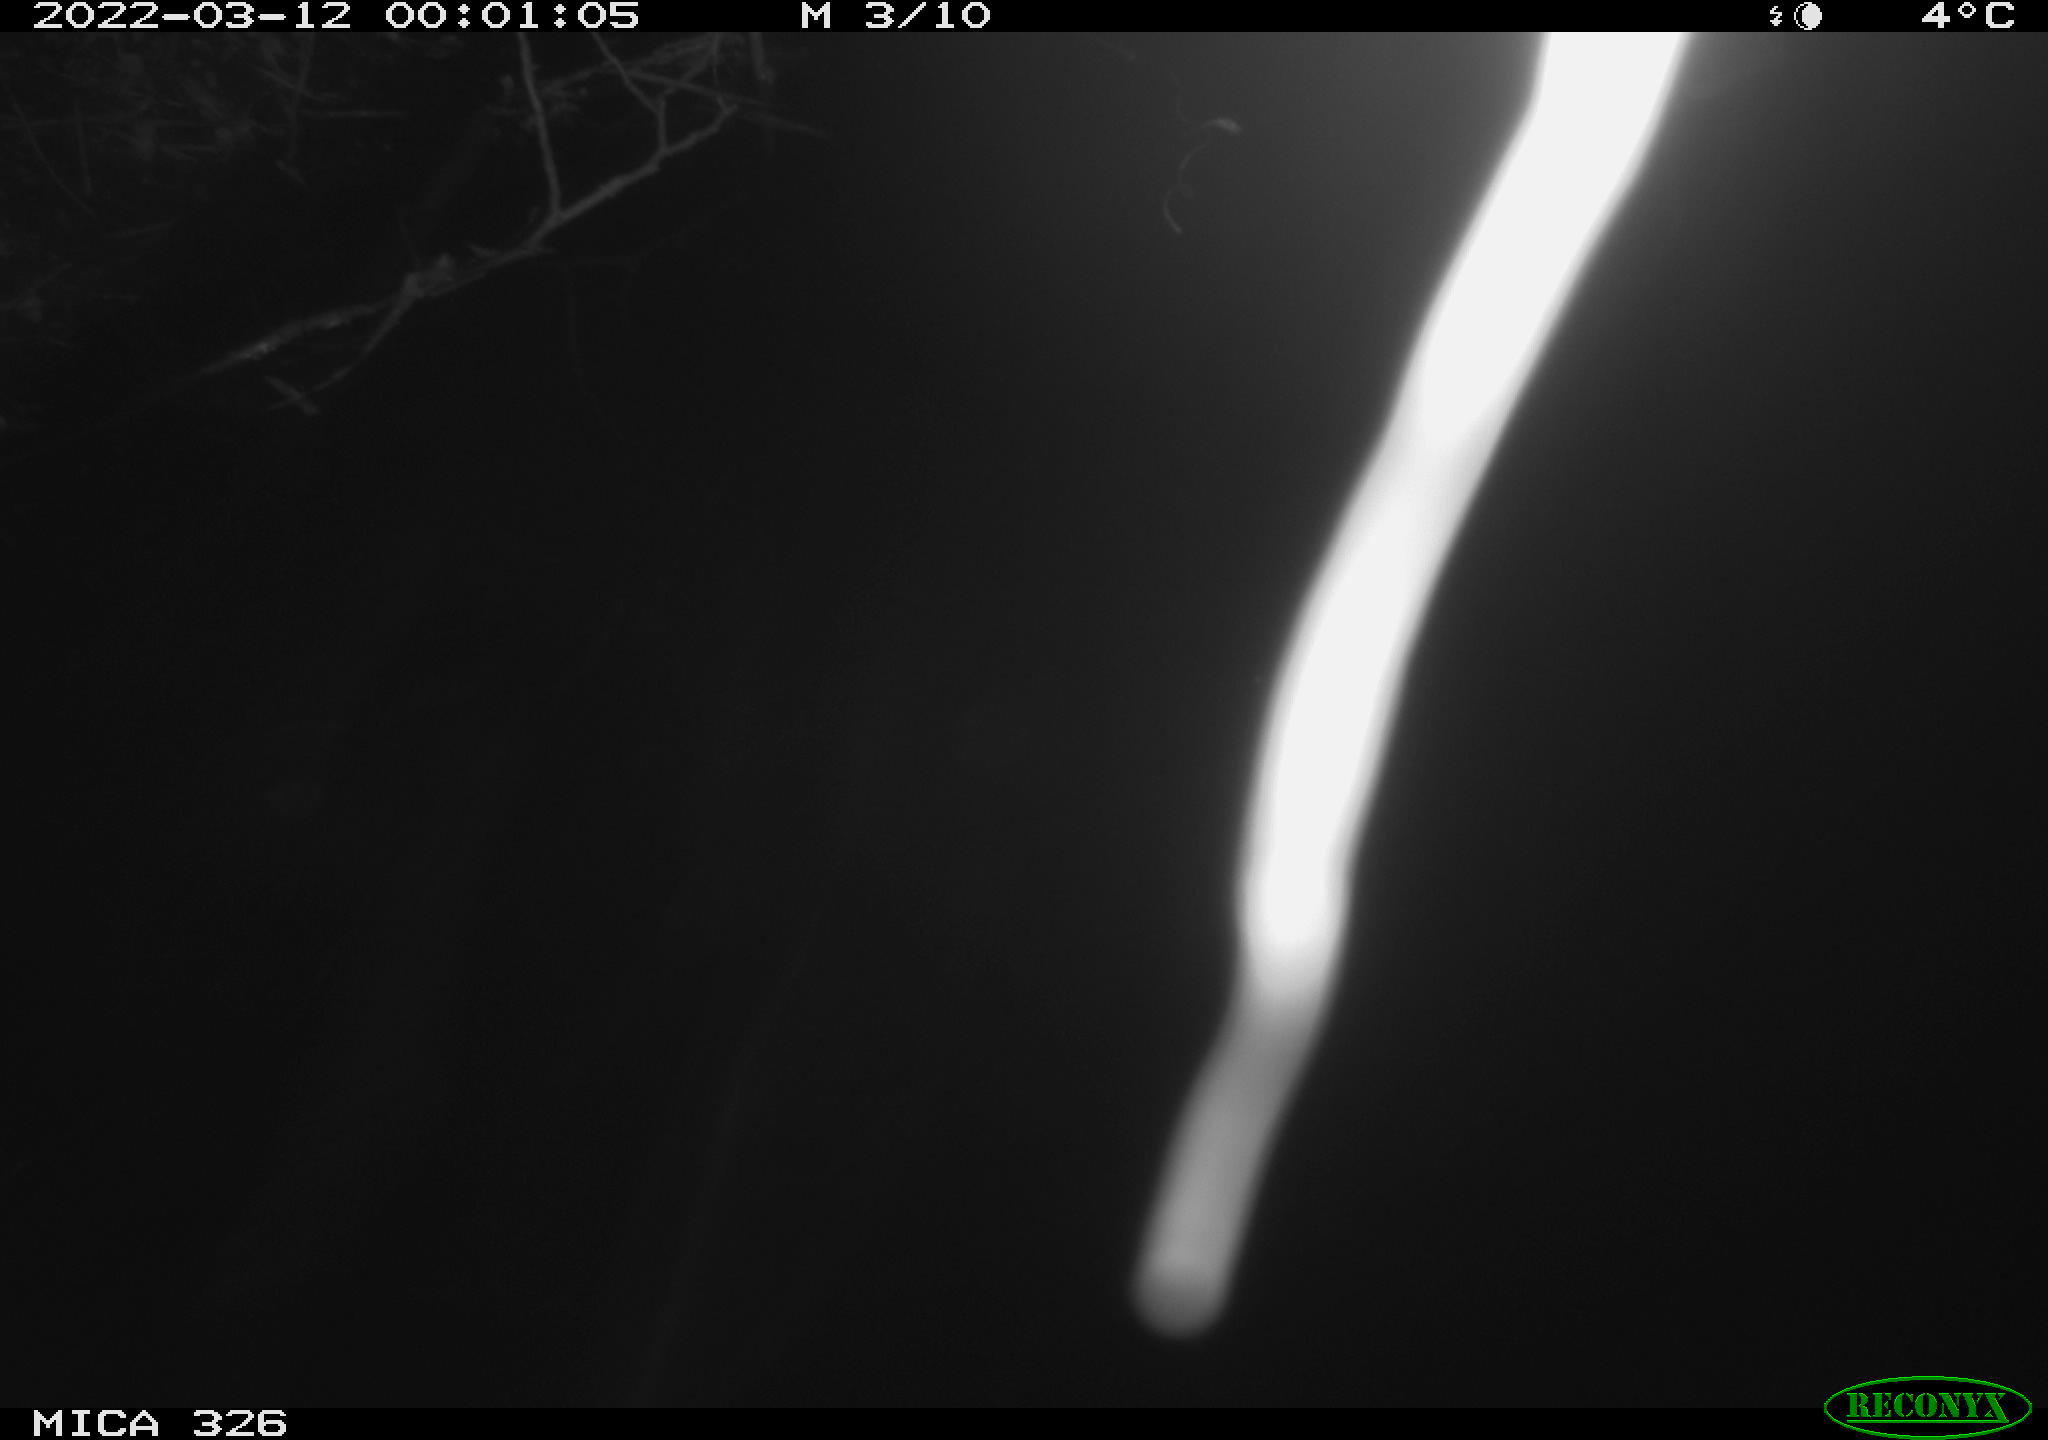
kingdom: Animalia
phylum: Chordata
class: Mammalia
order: Rodentia
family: Cricetidae
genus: Ondatra
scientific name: Ondatra zibethicus
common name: Muskrat
